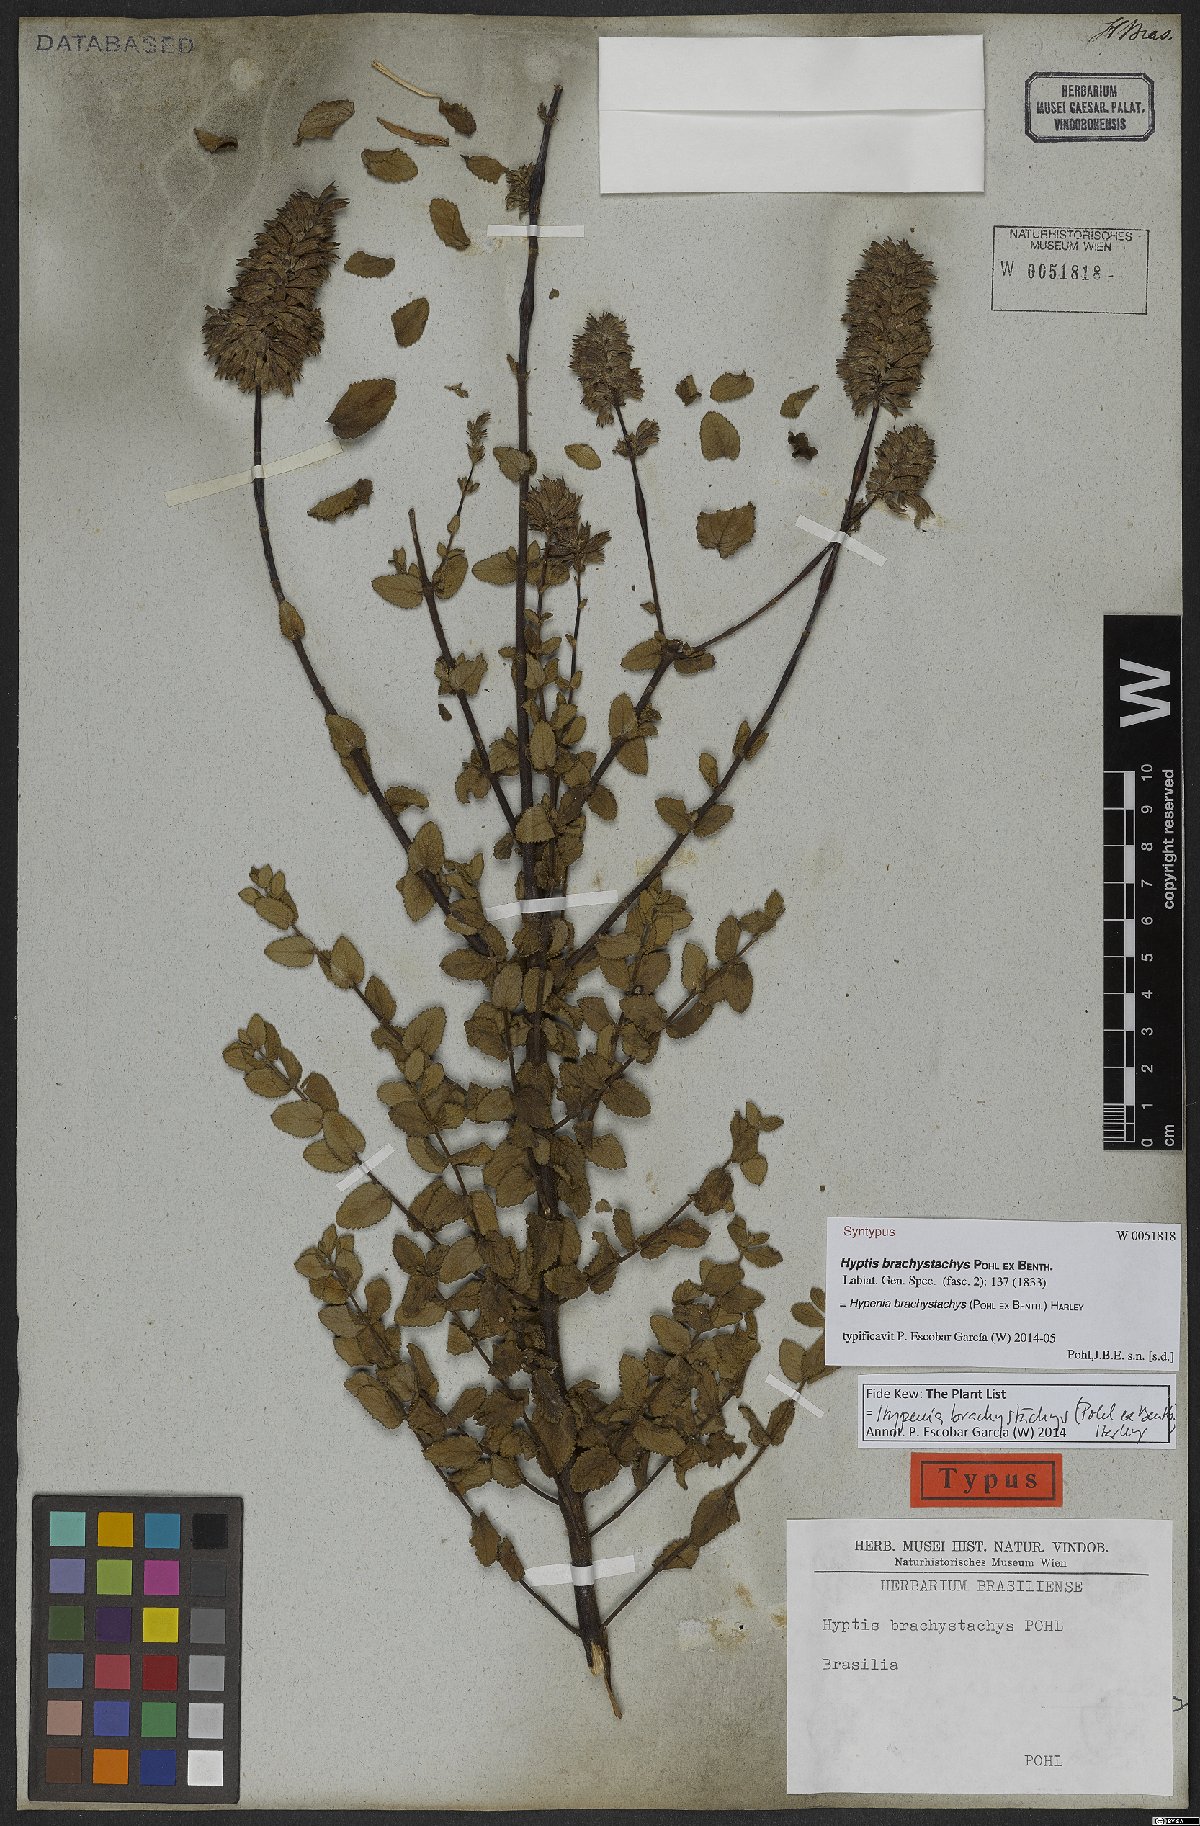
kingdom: Plantae
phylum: Tracheophyta
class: Magnoliopsida
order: Lamiales
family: Lamiaceae
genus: Hypenia
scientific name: Hypenia brachystachys
